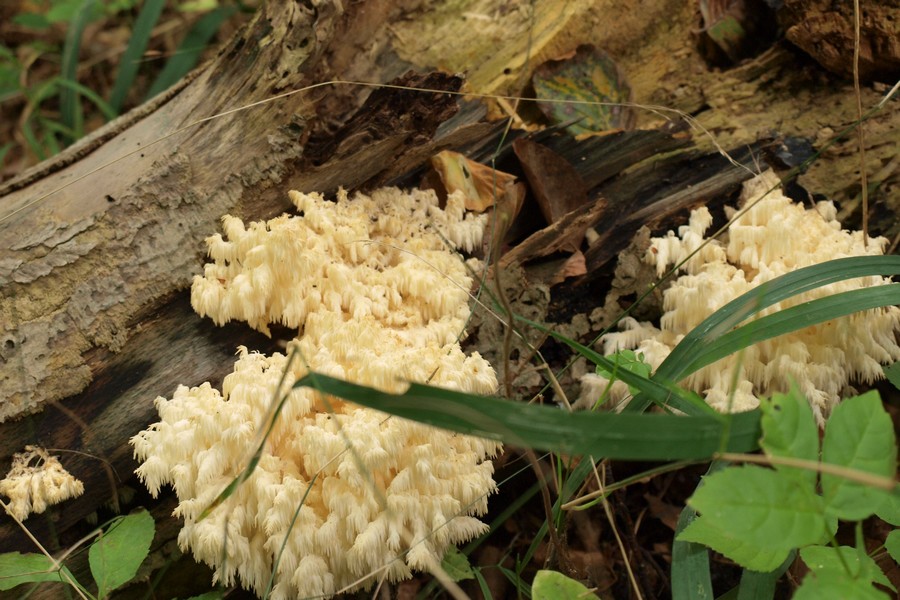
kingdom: Fungi
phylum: Basidiomycota
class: Agaricomycetes
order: Russulales
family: Hericiaceae
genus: Hericium
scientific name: Hericium coralloides
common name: koralpigsvamp
